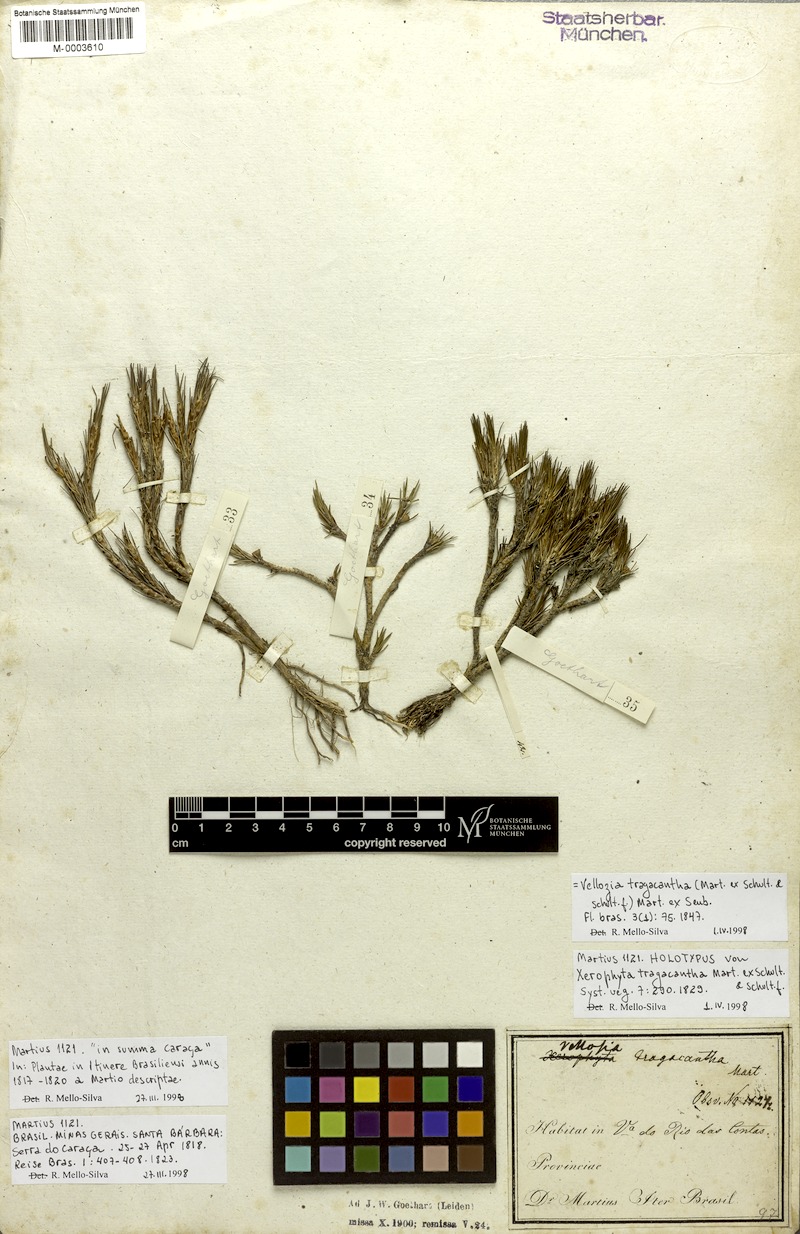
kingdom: Plantae
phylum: Tracheophyta
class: Liliopsida
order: Pandanales
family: Velloziaceae
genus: Vellozia
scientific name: Vellozia tragacantha
